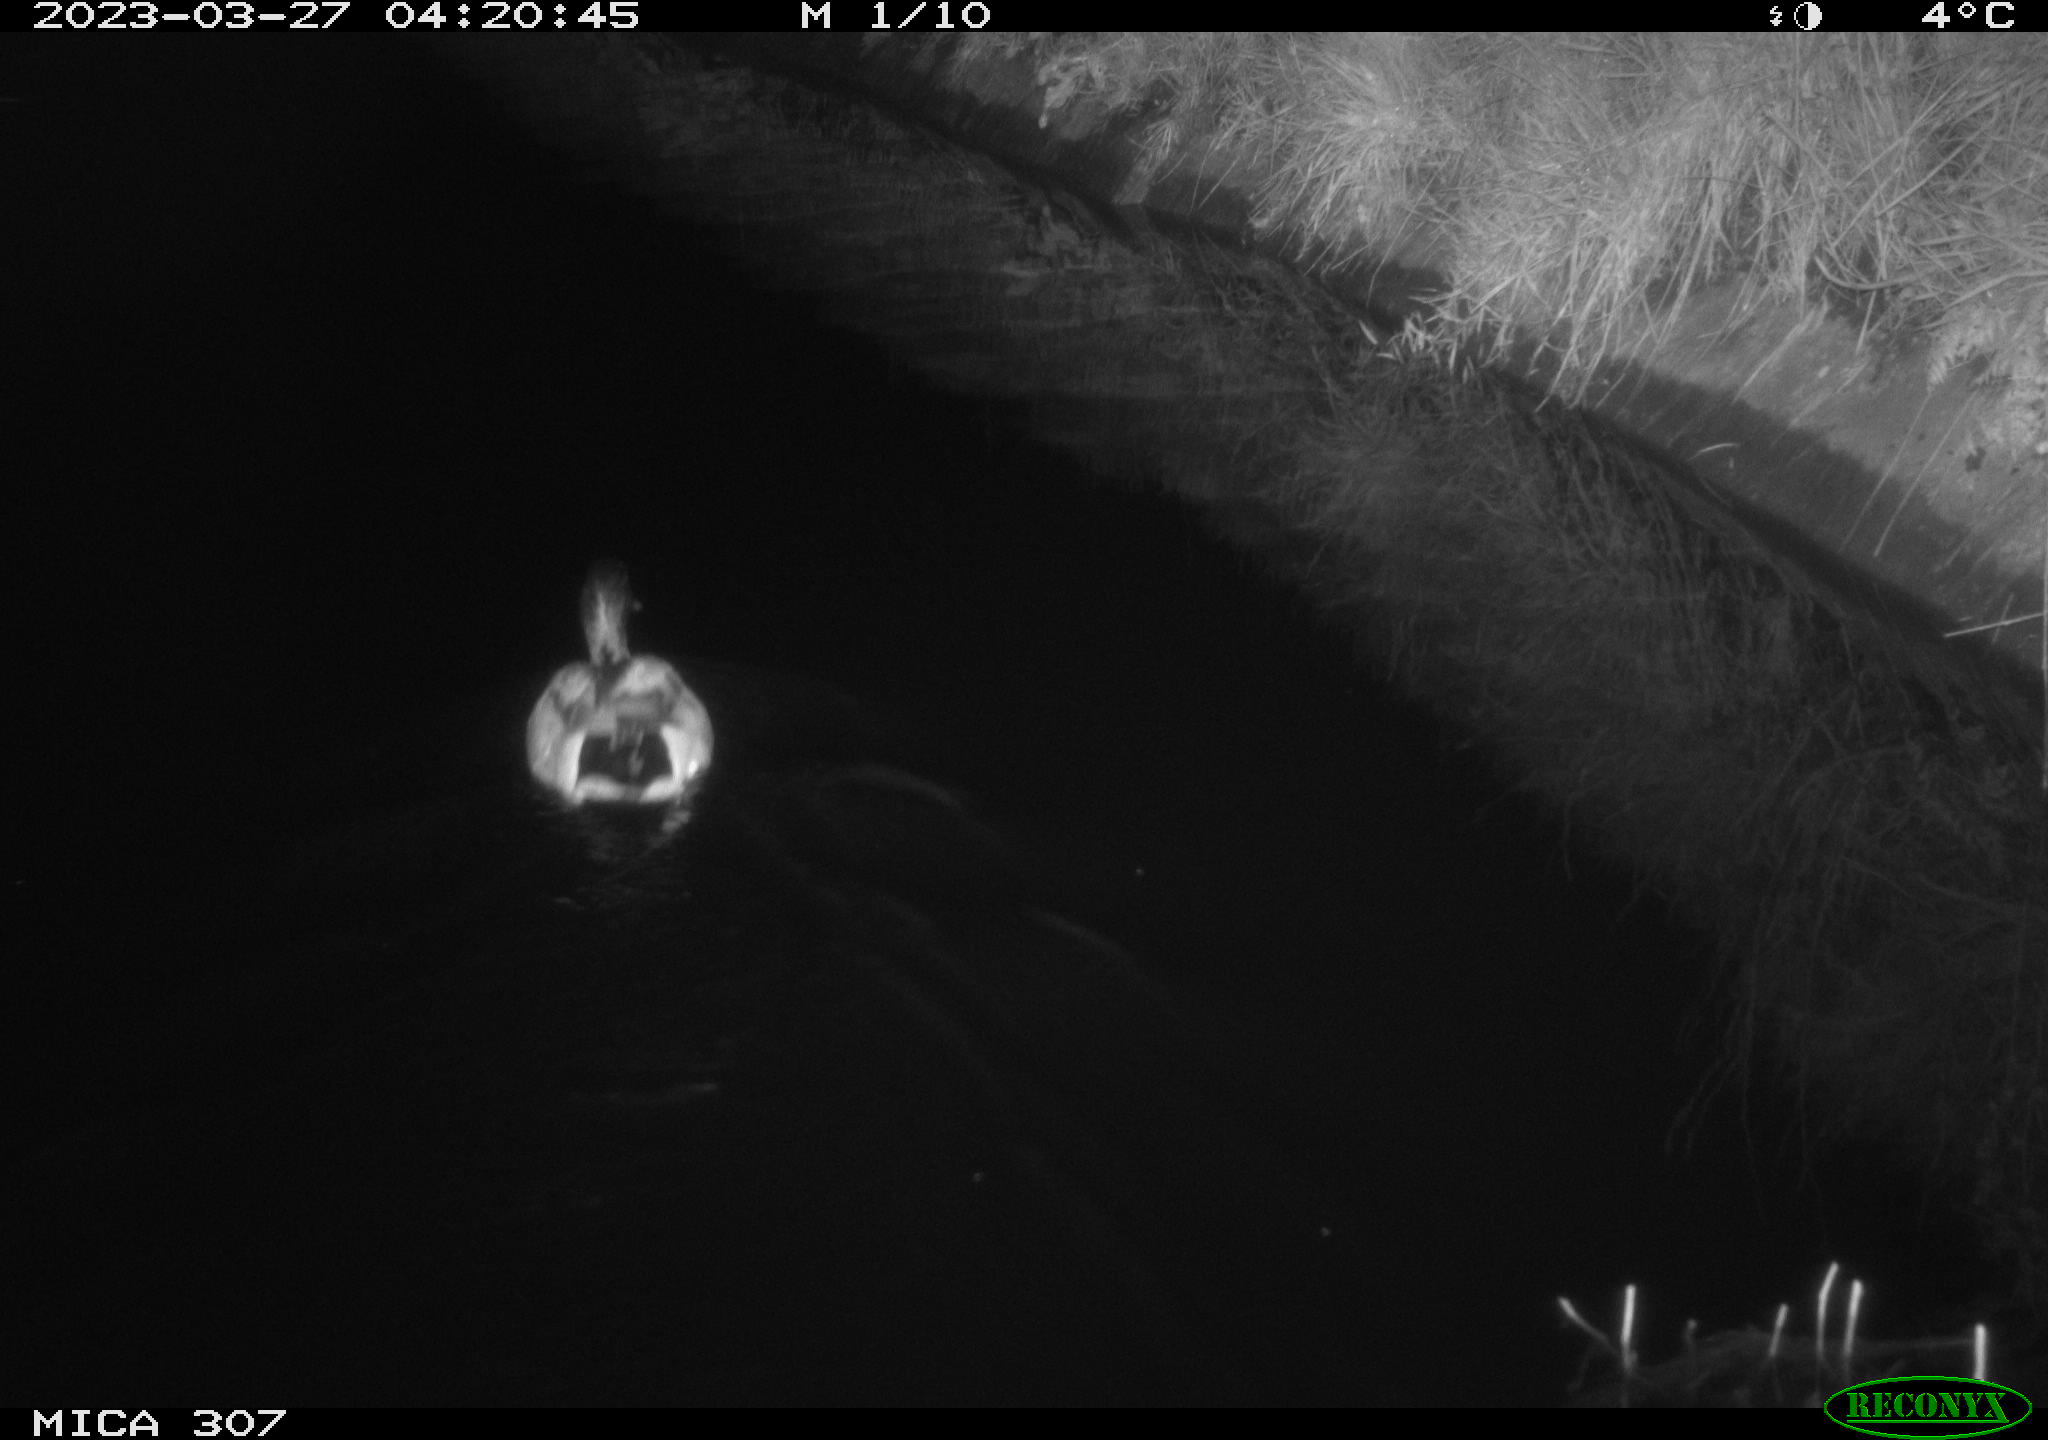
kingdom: Animalia
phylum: Chordata
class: Aves
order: Anseriformes
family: Anatidae
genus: Anas
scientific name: Anas
